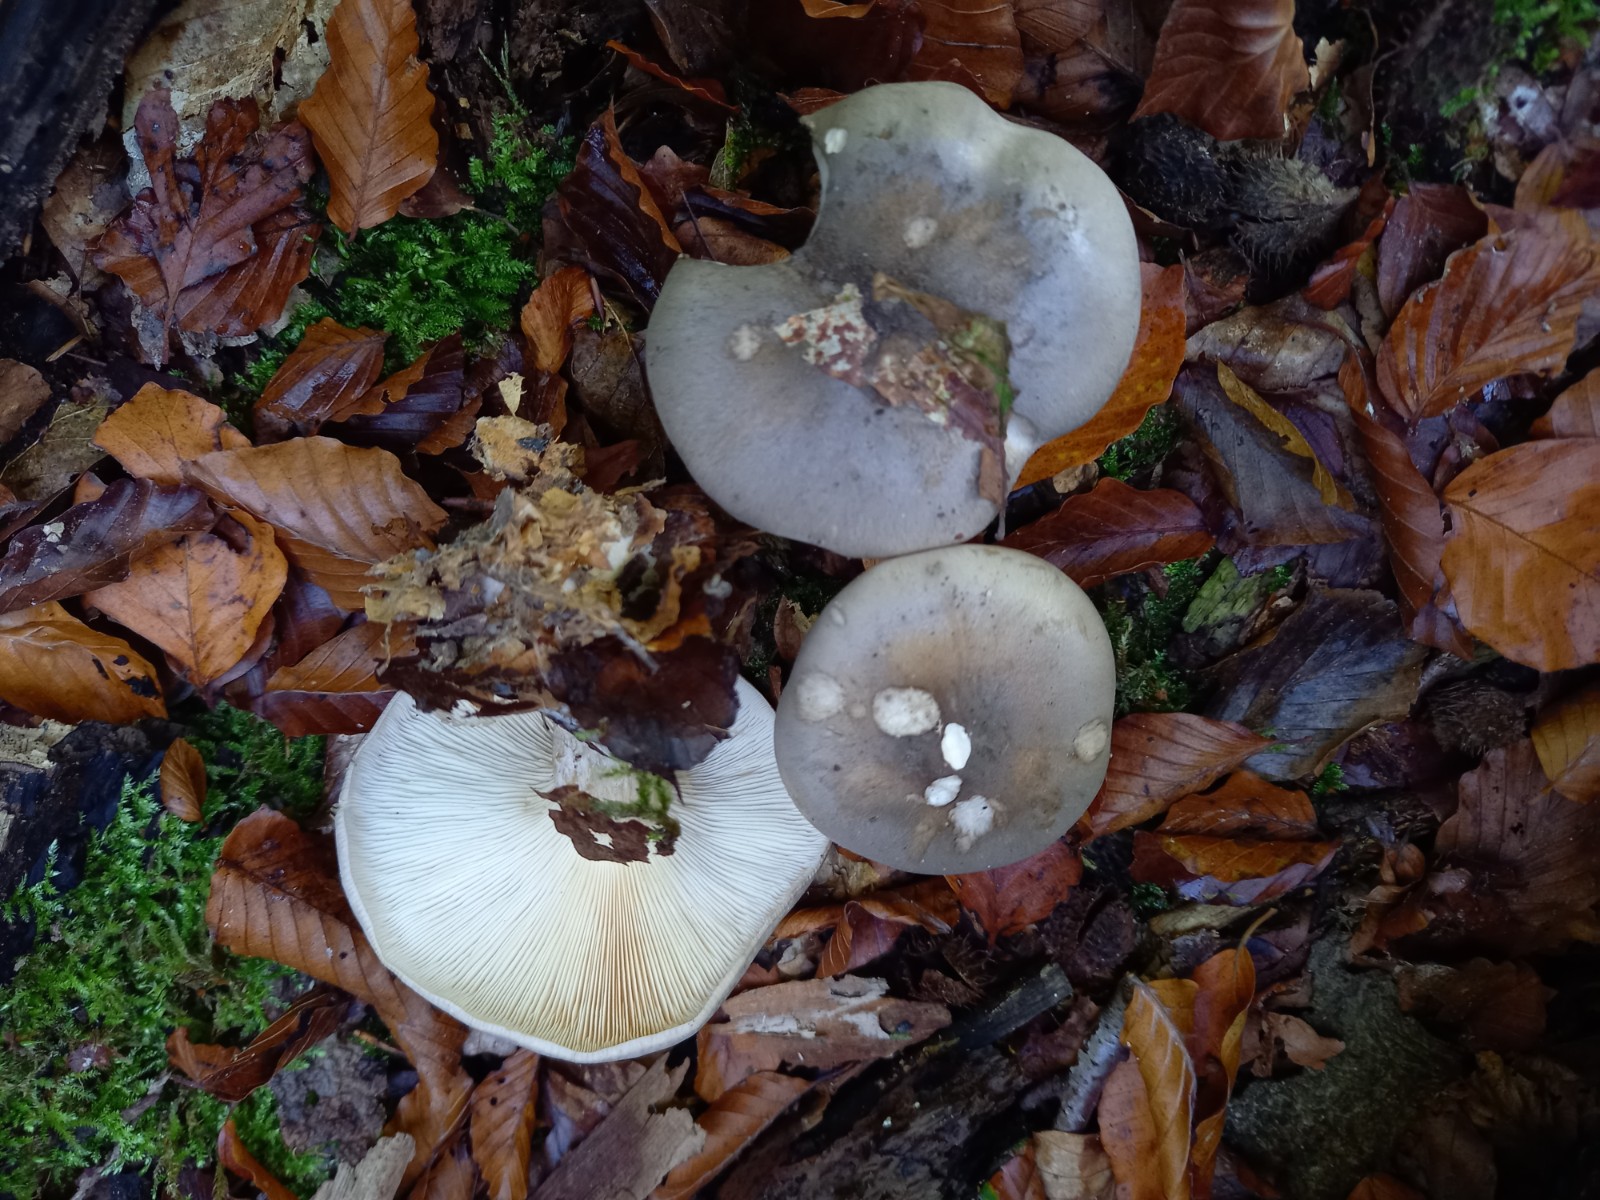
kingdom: Fungi
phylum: Basidiomycota
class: Agaricomycetes
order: Agaricales
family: Tricholomataceae
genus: Clitocybe
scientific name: Clitocybe nebularis
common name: tåge-tragthat
